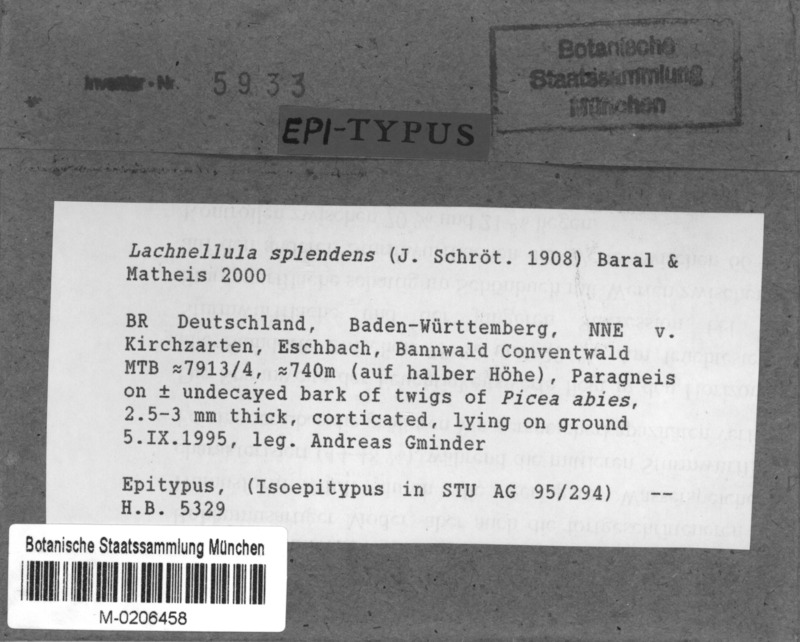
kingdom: Fungi
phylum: Ascomycota
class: Leotiomycetes
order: Helotiales
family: Lachnaceae
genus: Lachnellula
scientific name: Lachnellula splendens
